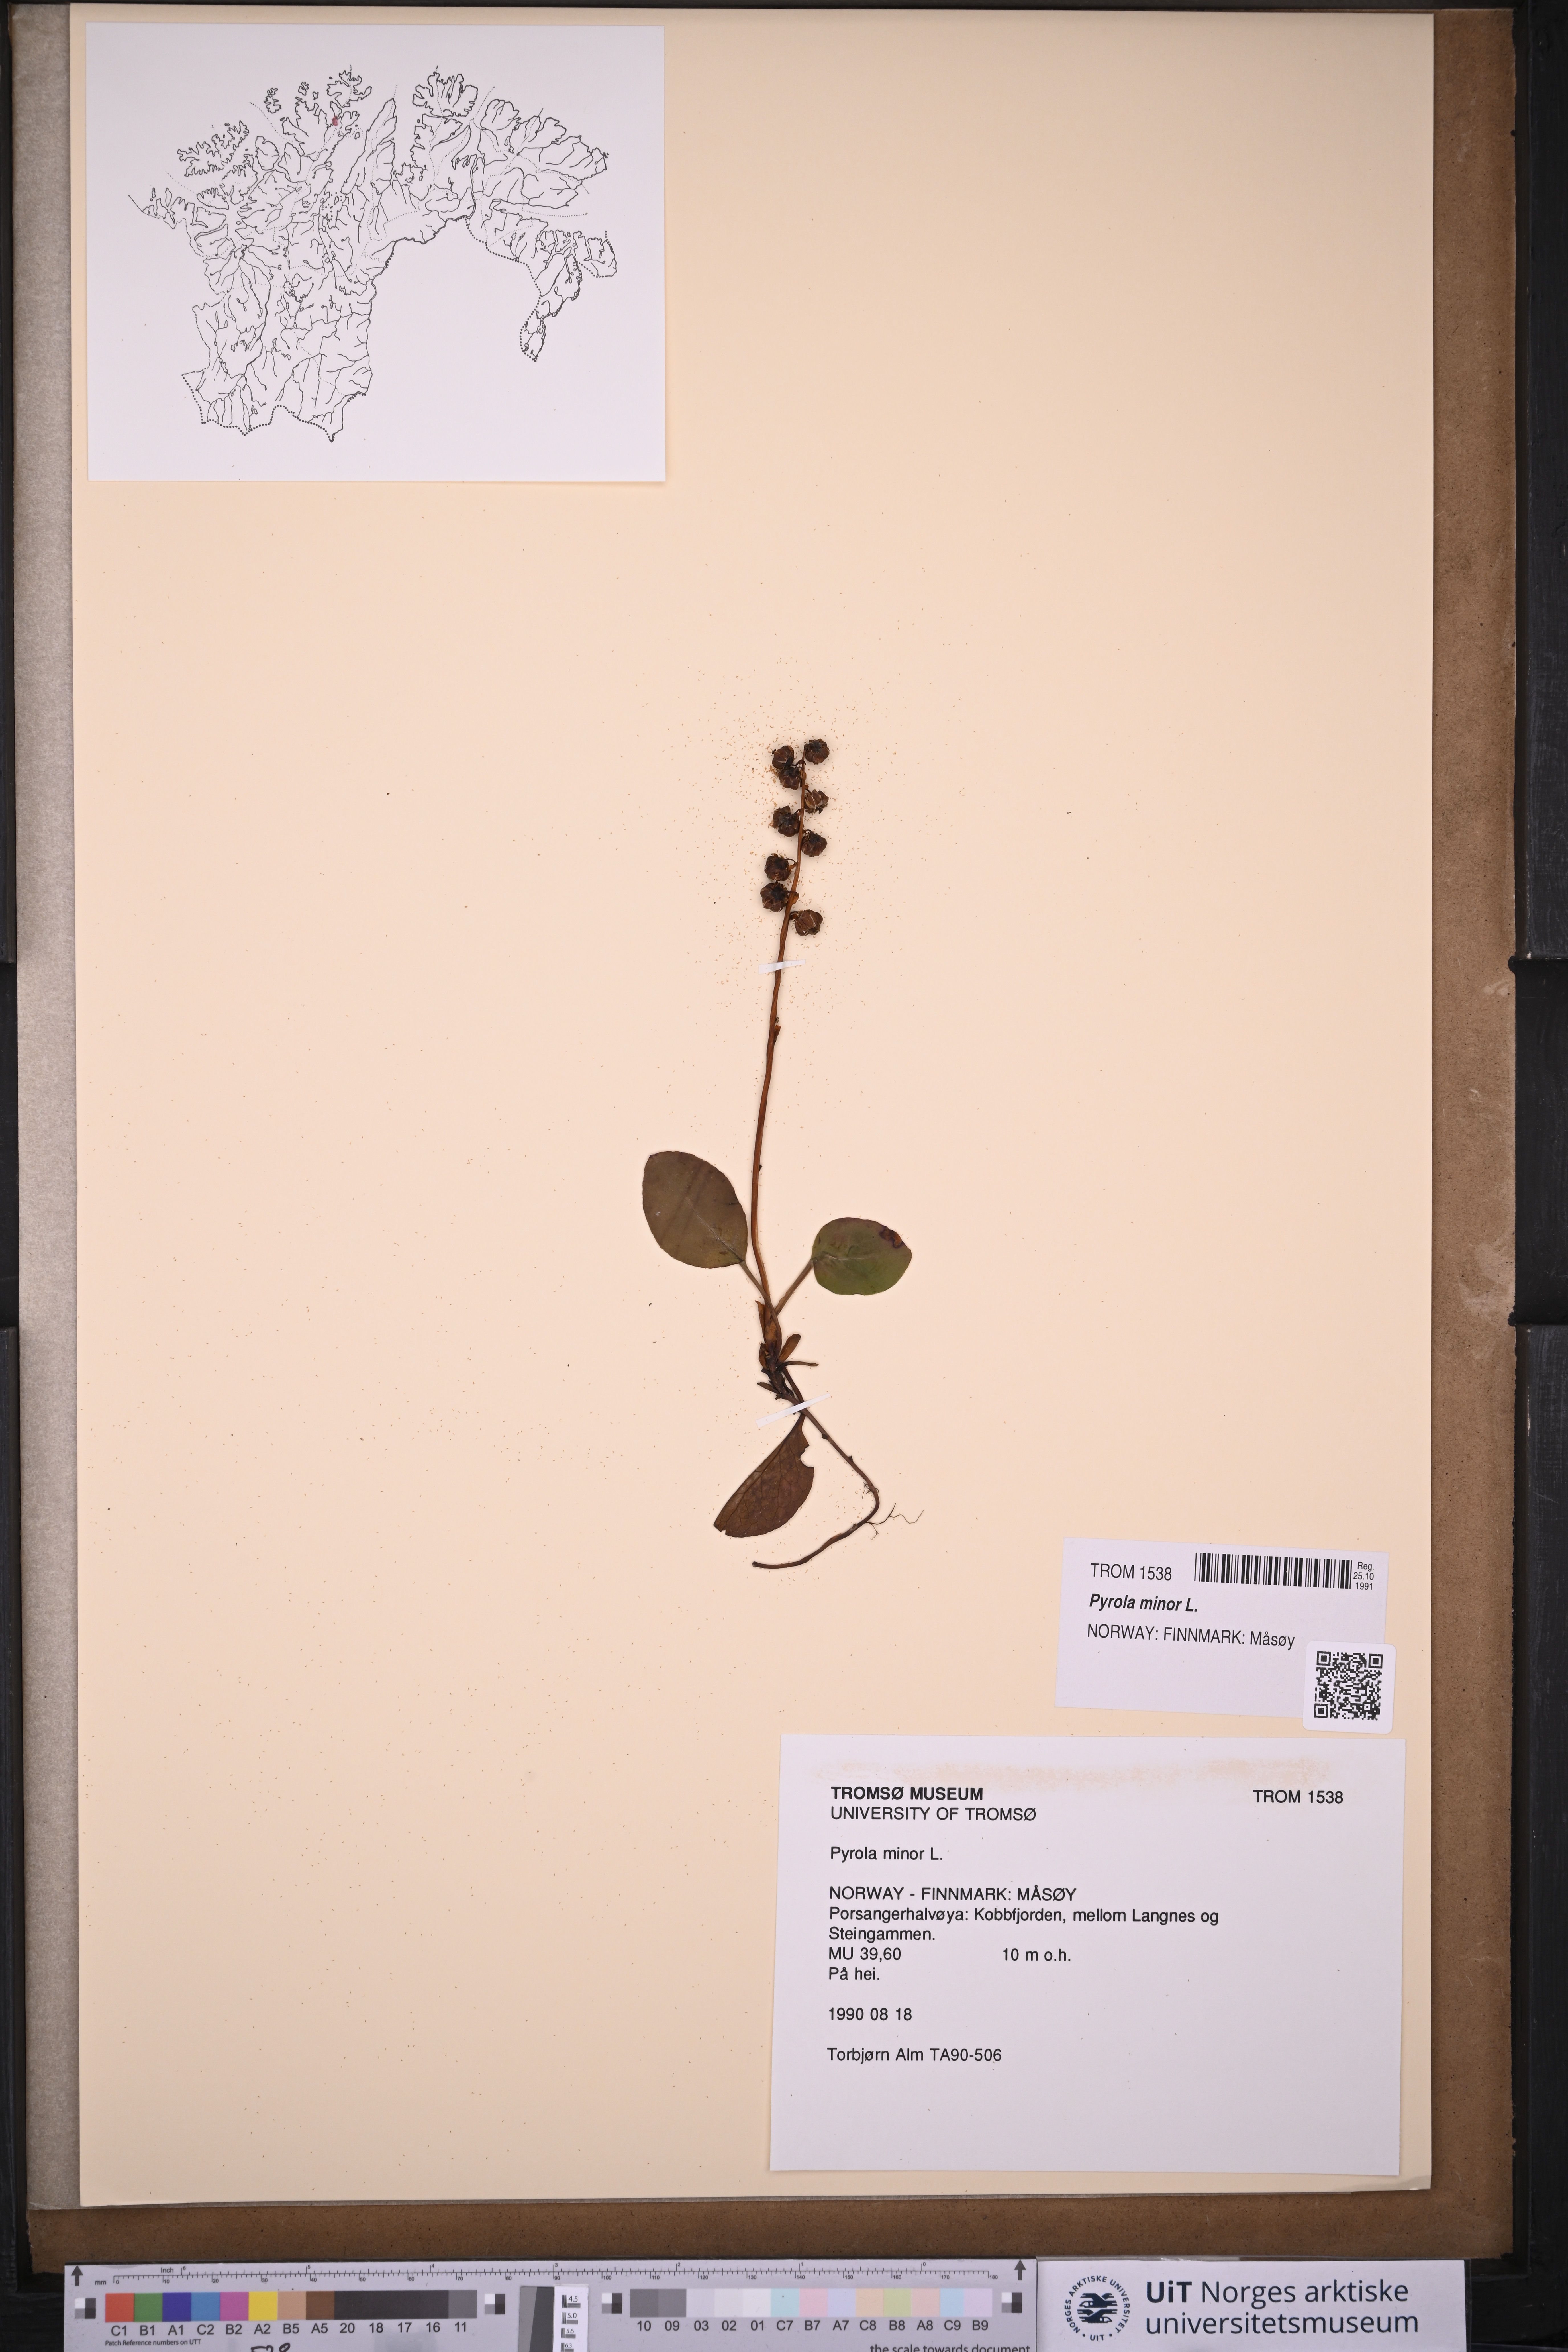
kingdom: Plantae
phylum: Tracheophyta
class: Magnoliopsida
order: Ericales
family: Ericaceae
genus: Pyrola
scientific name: Pyrola minor
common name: Common wintergreen
